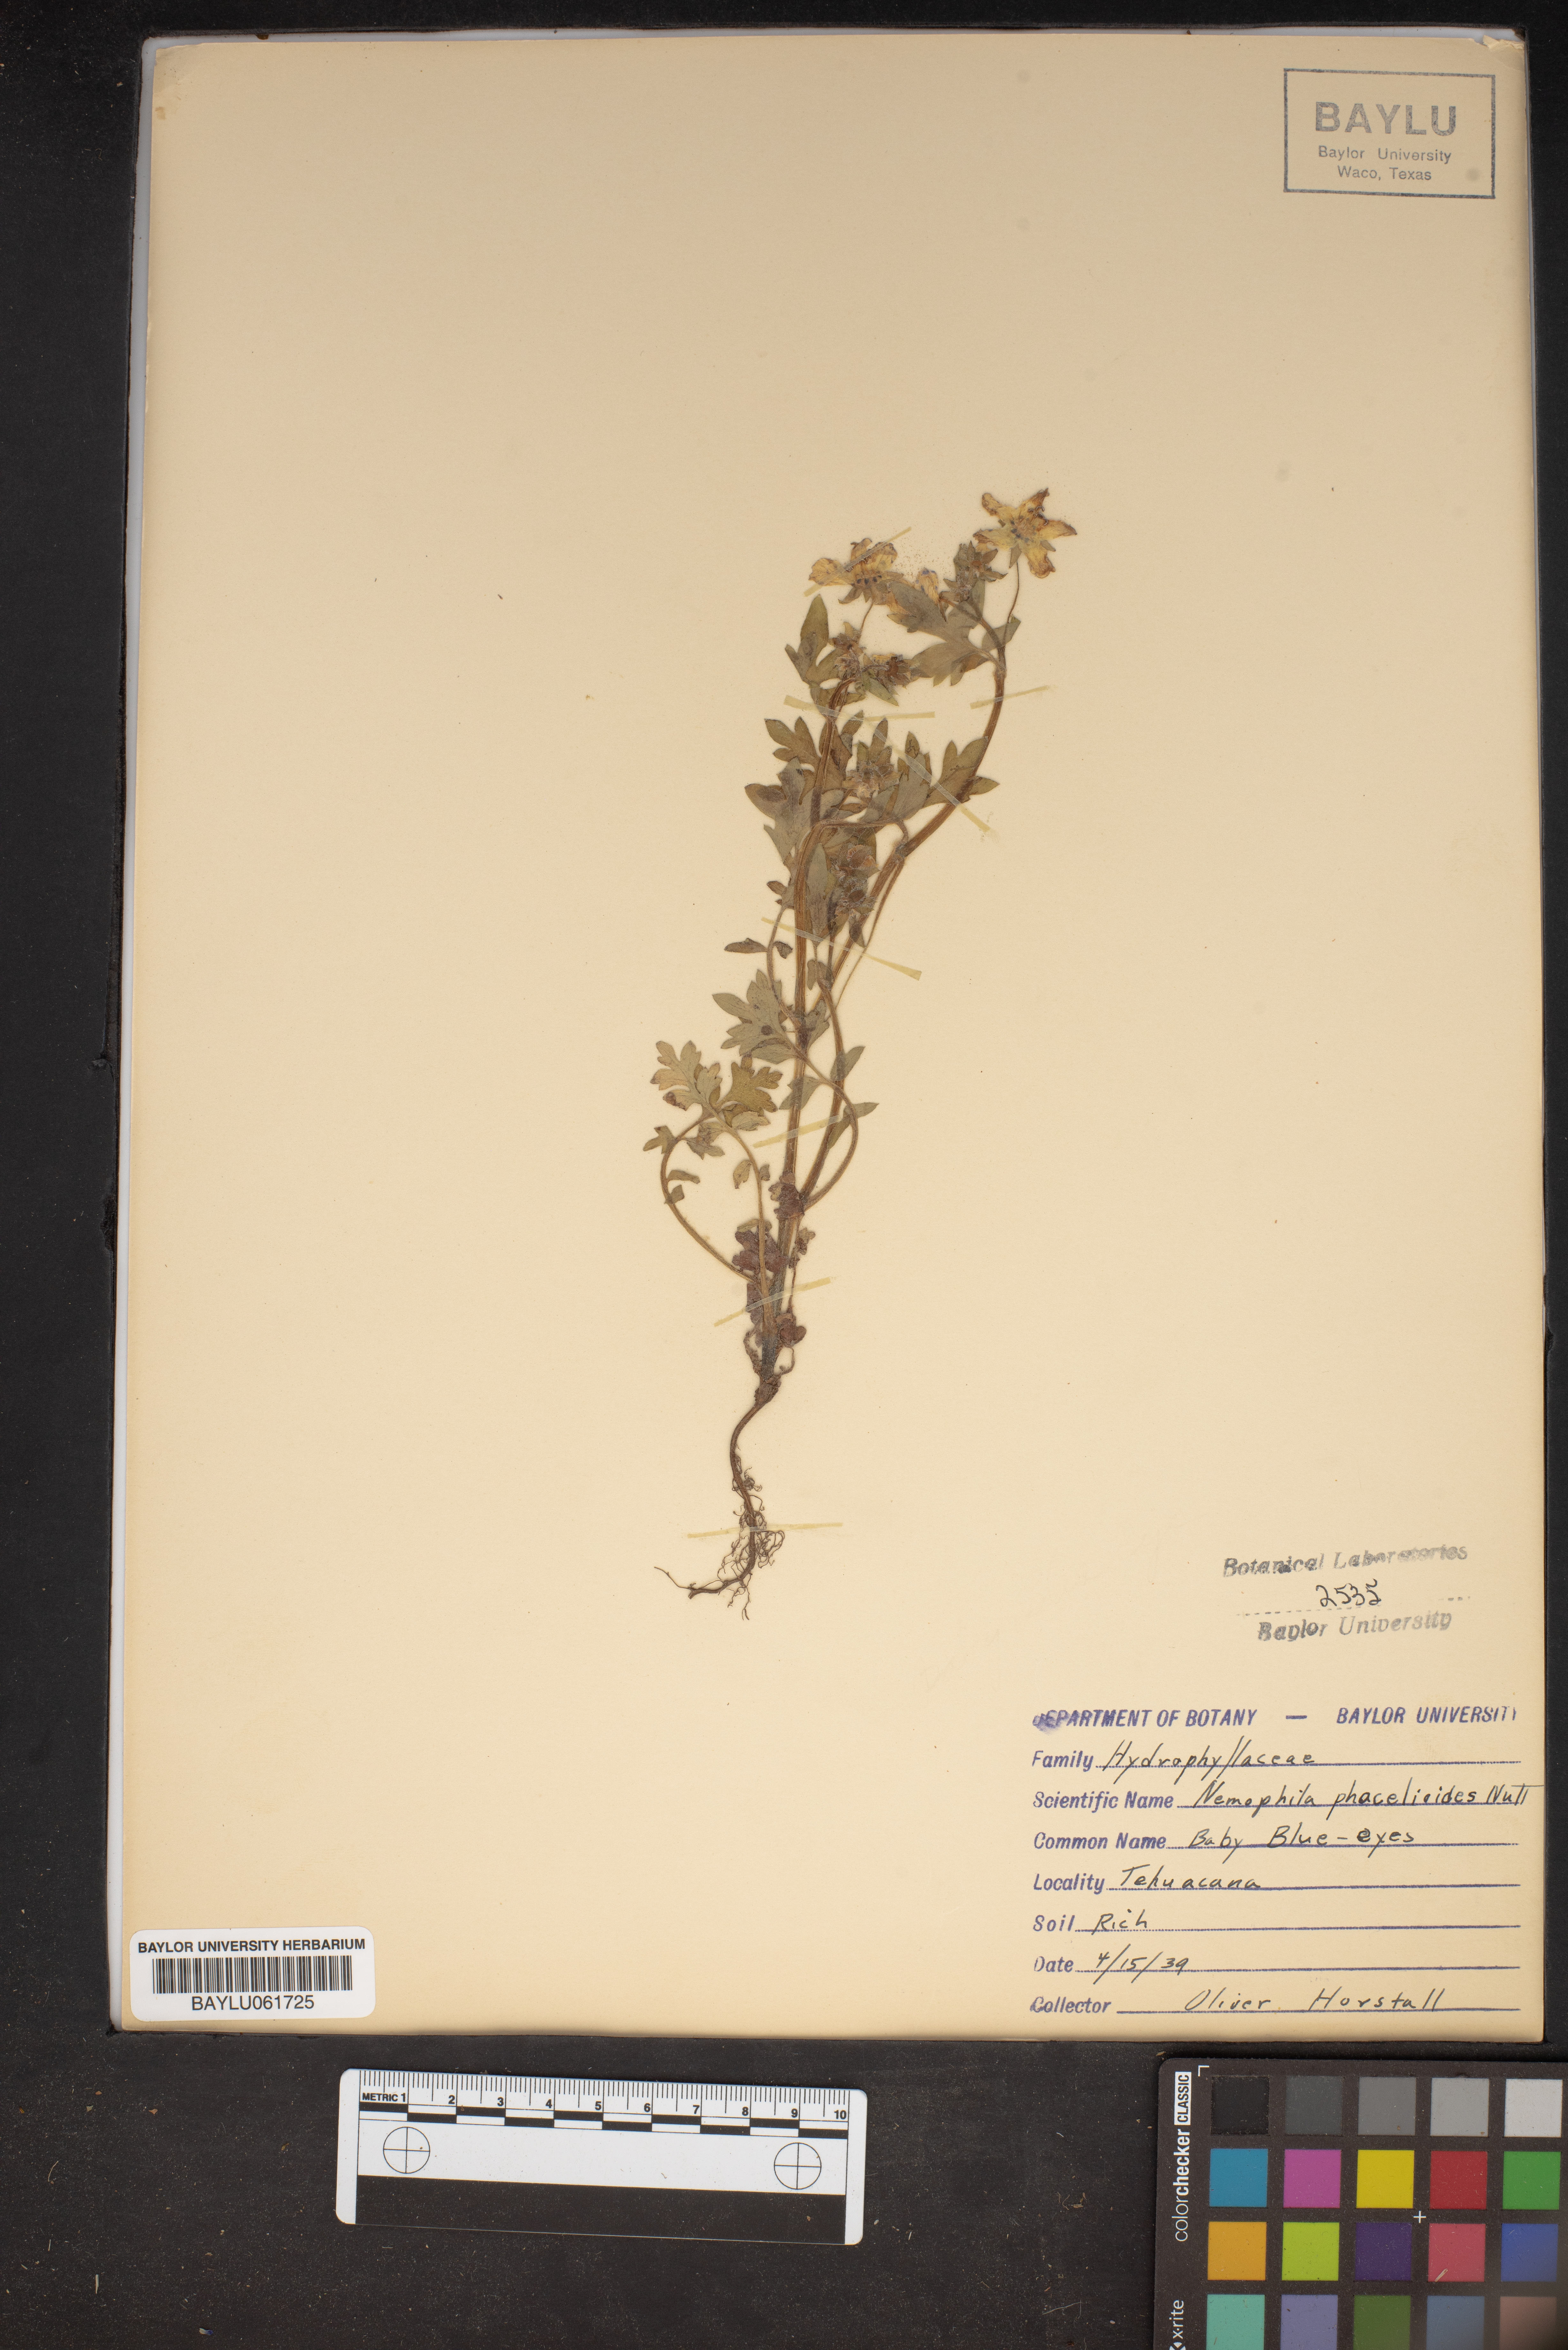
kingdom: Plantae
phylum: Tracheophyta
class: Magnoliopsida
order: Boraginales
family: Hydrophyllaceae
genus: Nemophila
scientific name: Nemophila phacelioides
